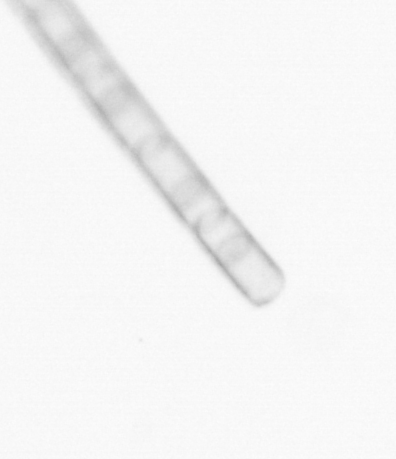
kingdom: Chromista
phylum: Ochrophyta
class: Bacillariophyceae
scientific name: Bacillariophyceae
